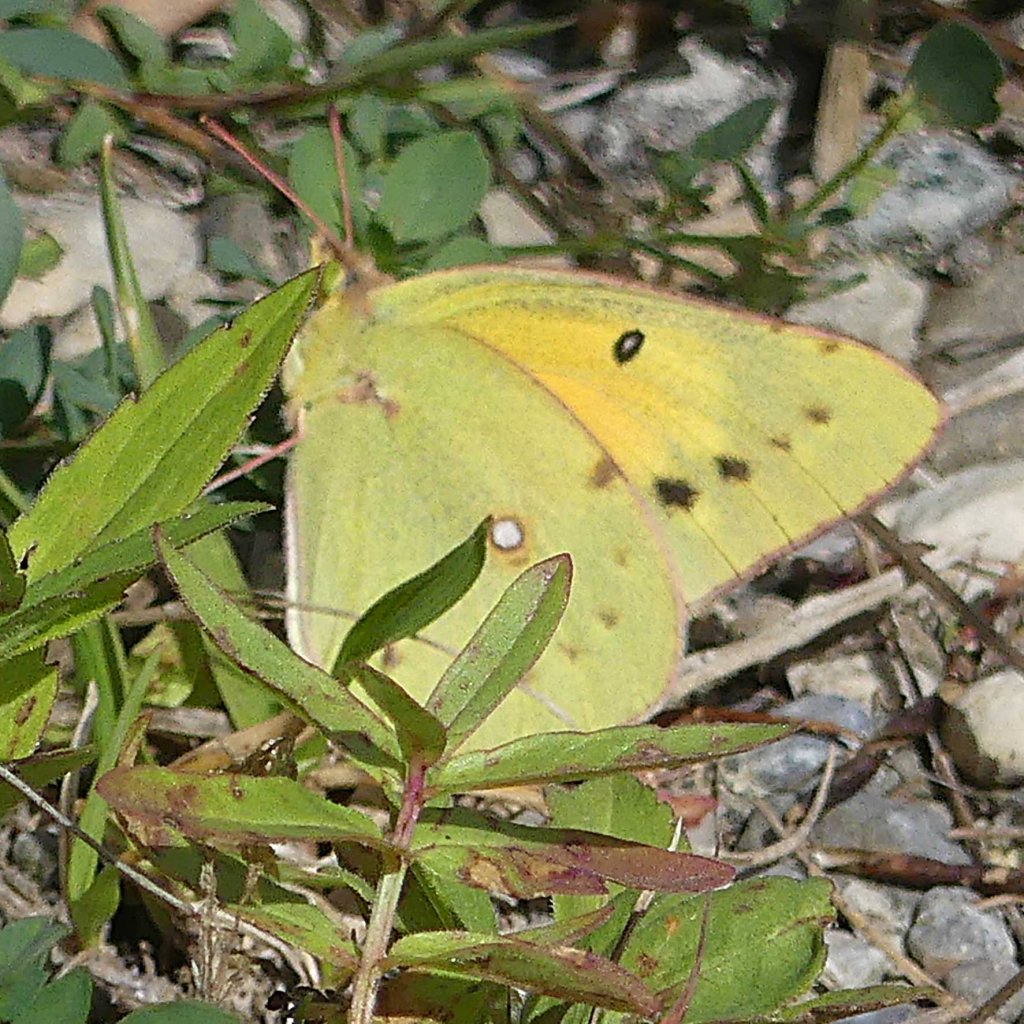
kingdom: Animalia
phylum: Arthropoda
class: Insecta
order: Lepidoptera
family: Pieridae
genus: Colias
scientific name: Colias eurytheme
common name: Orange Sulphur
